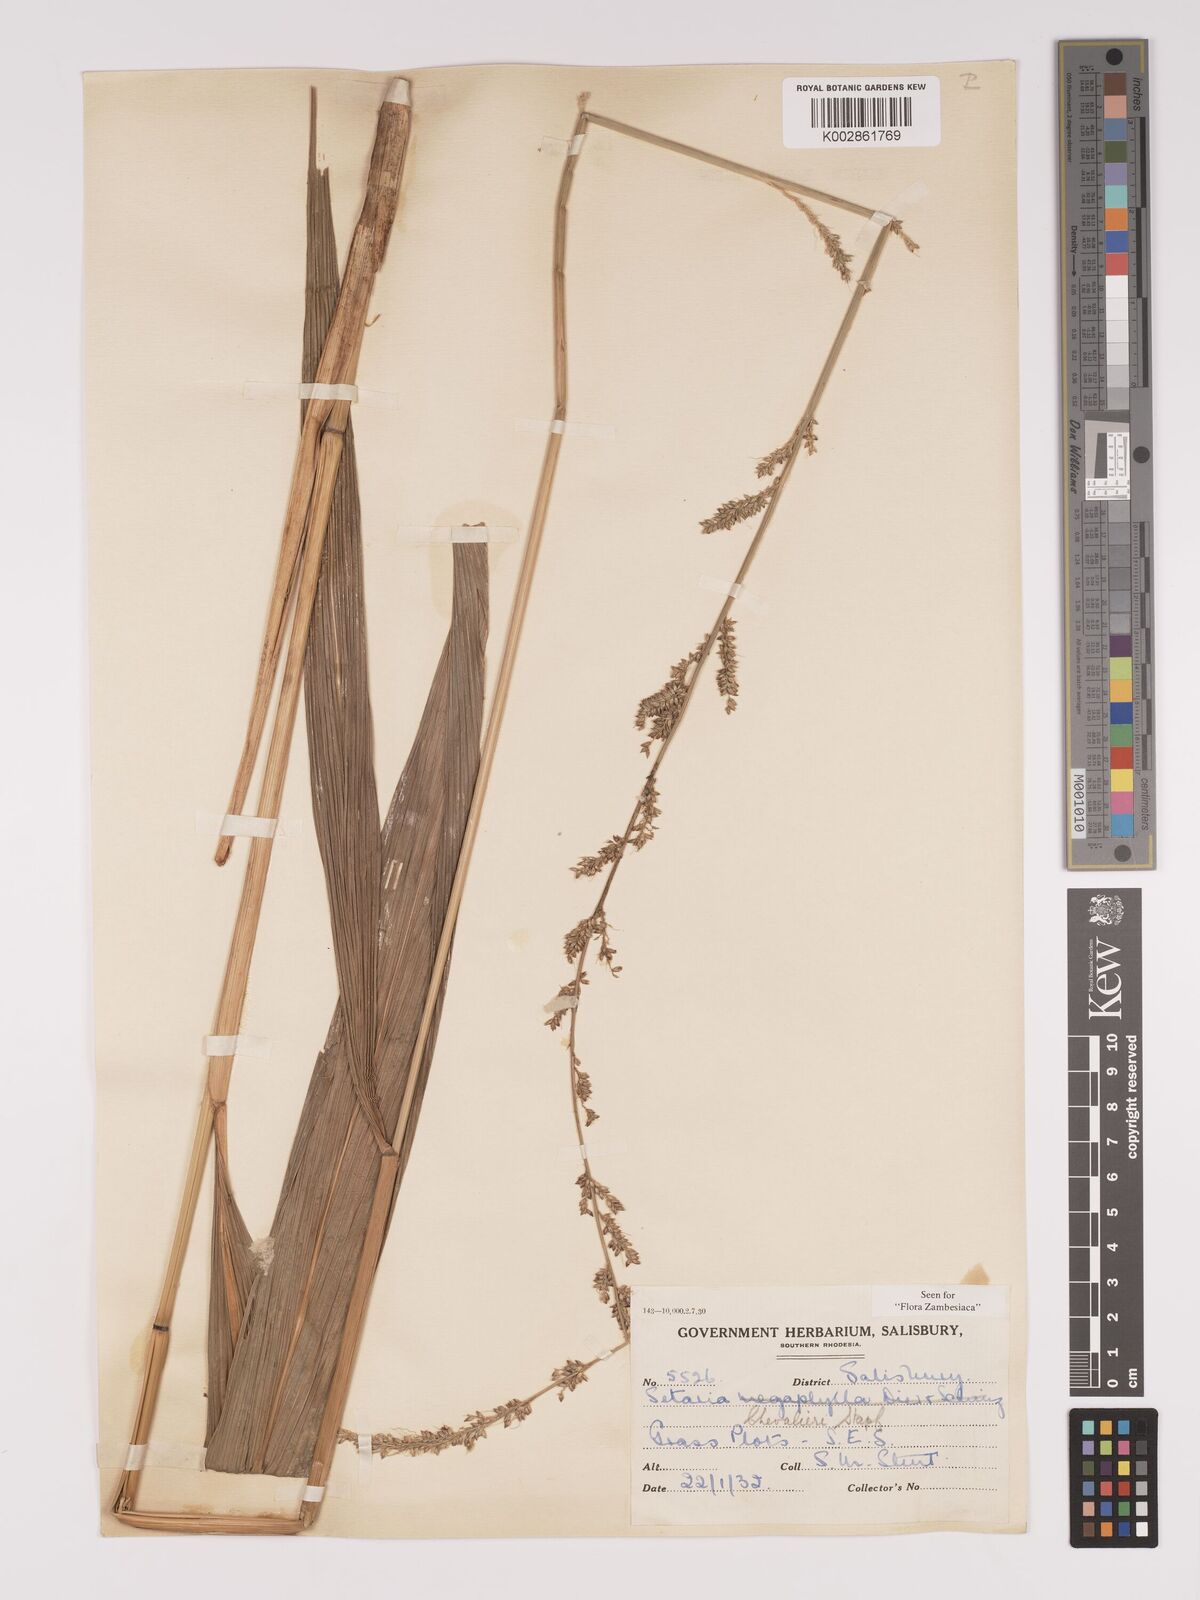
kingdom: Plantae
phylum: Tracheophyta
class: Liliopsida
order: Poales
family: Poaceae
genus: Setaria
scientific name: Setaria megaphylla
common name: Bigleaf bristlegrass
